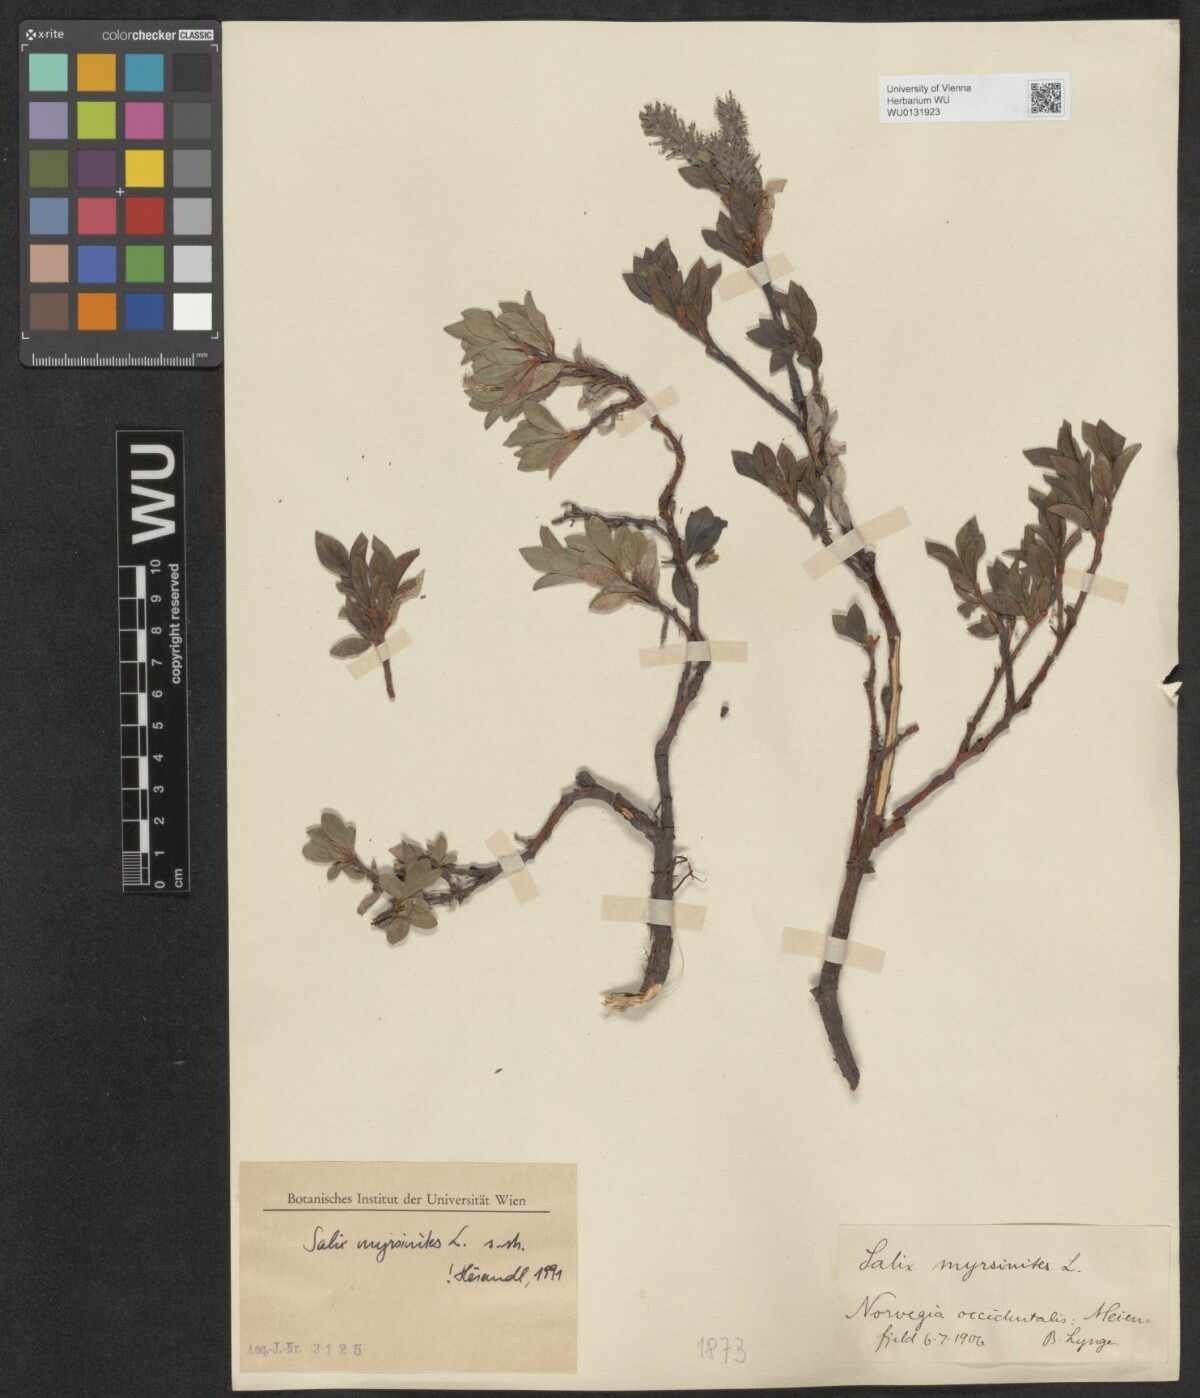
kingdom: Plantae
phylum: Tracheophyta
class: Magnoliopsida
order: Malpighiales
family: Salicaceae
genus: Salix
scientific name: Salix myrsinites
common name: Myrtle willow
